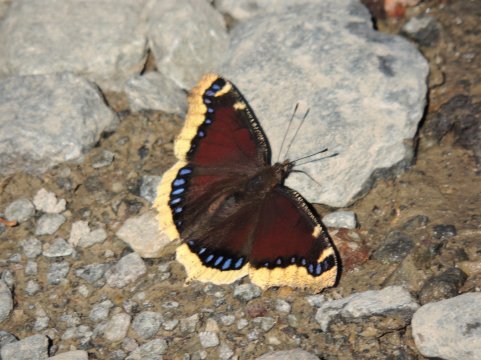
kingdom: Animalia
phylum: Arthropoda
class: Insecta
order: Lepidoptera
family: Nymphalidae
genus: Nymphalis
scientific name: Nymphalis antiopa
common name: Mourning Cloak
